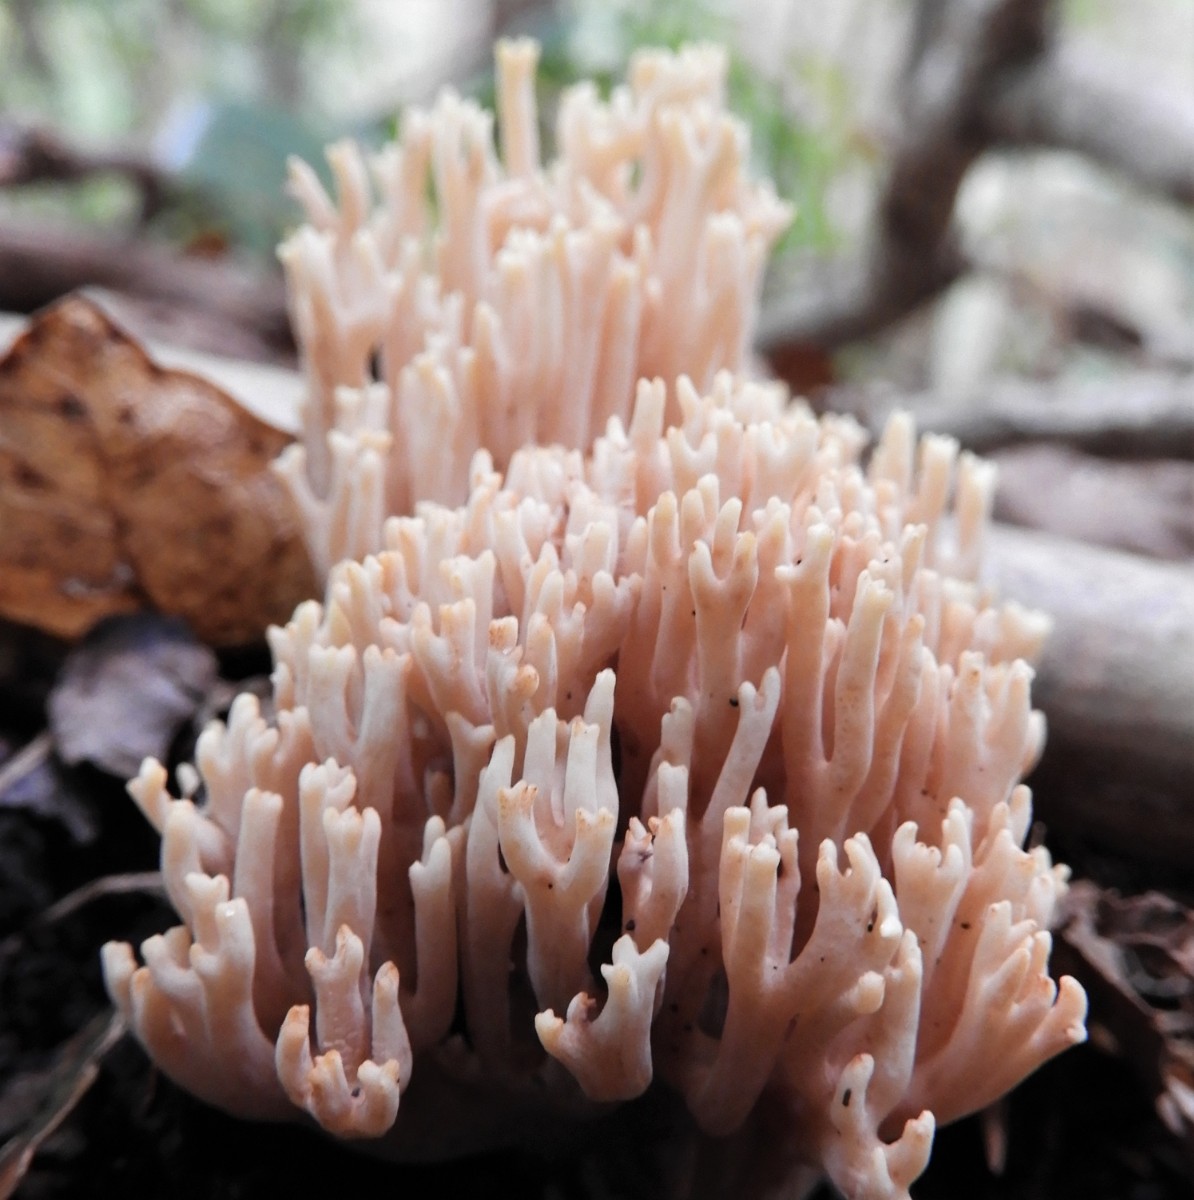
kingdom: Fungi
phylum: Basidiomycota
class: Agaricomycetes
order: Gomphales
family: Gomphaceae
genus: Ramaria
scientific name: Ramaria stricta
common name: rank koralsvamp
